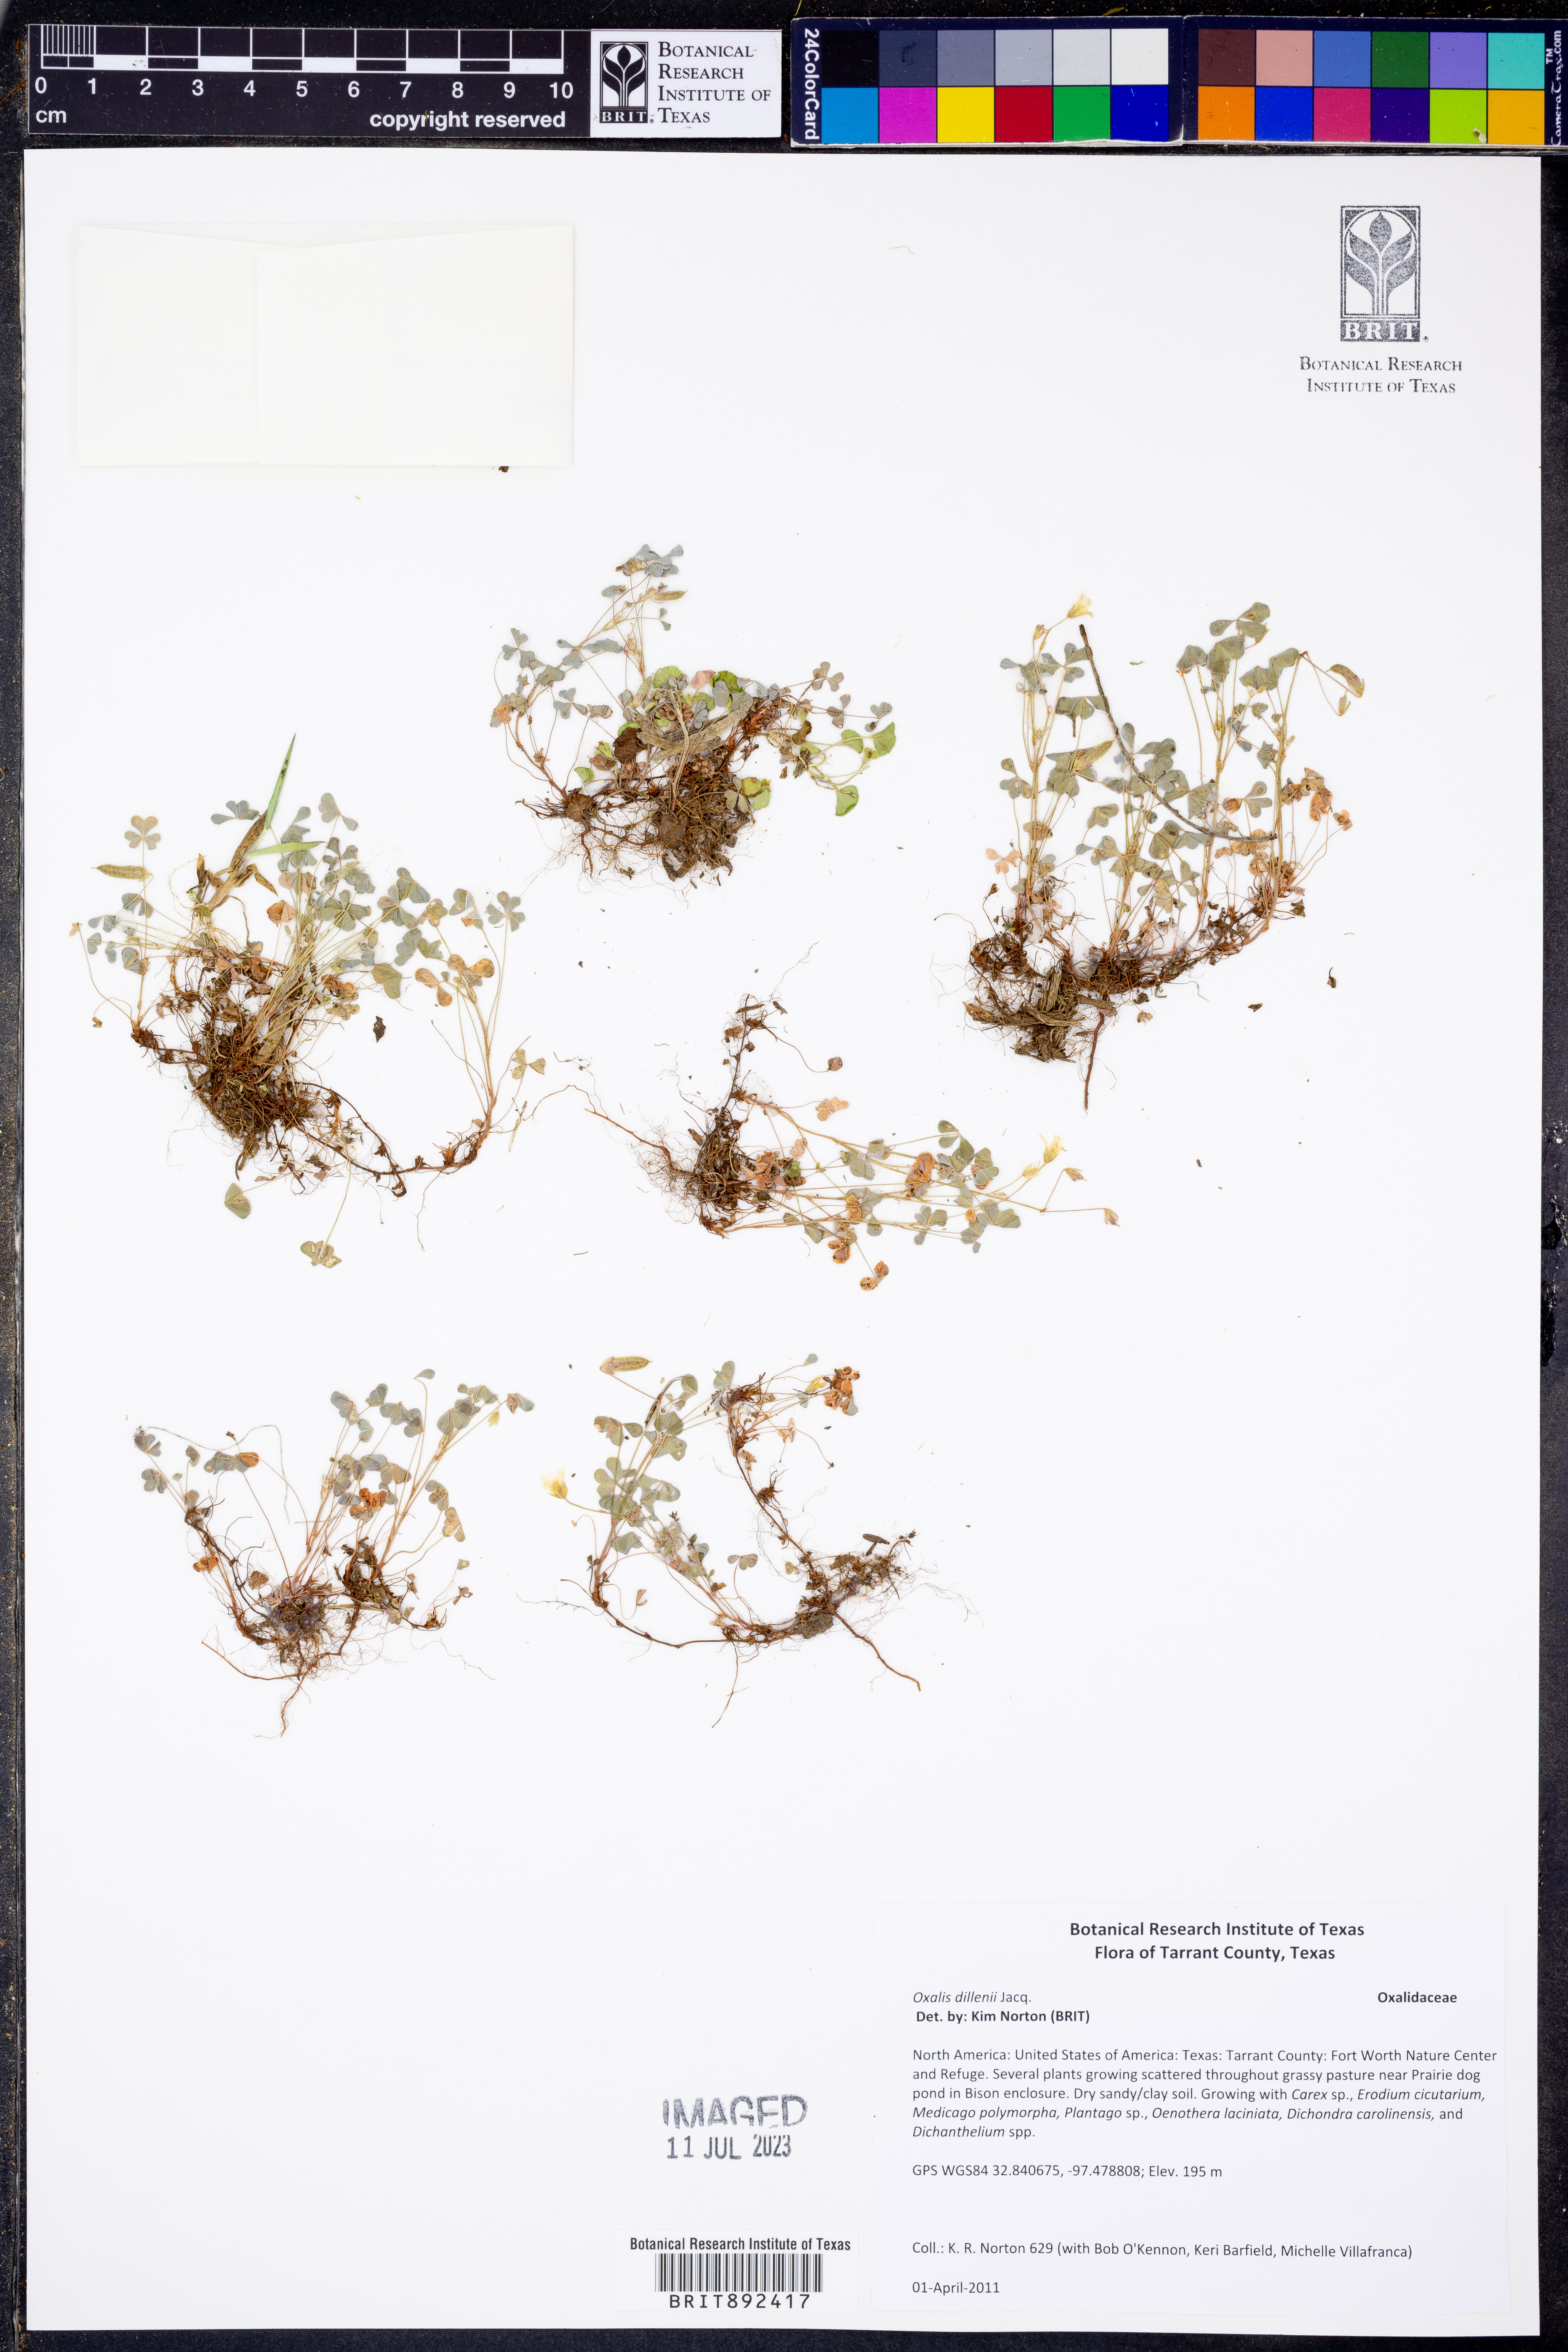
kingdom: Plantae
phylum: Tracheophyta
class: Magnoliopsida
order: Oxalidales
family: Oxalidaceae
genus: Oxalis
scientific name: Oxalis dillenii
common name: Sussex yellow-sorrel
